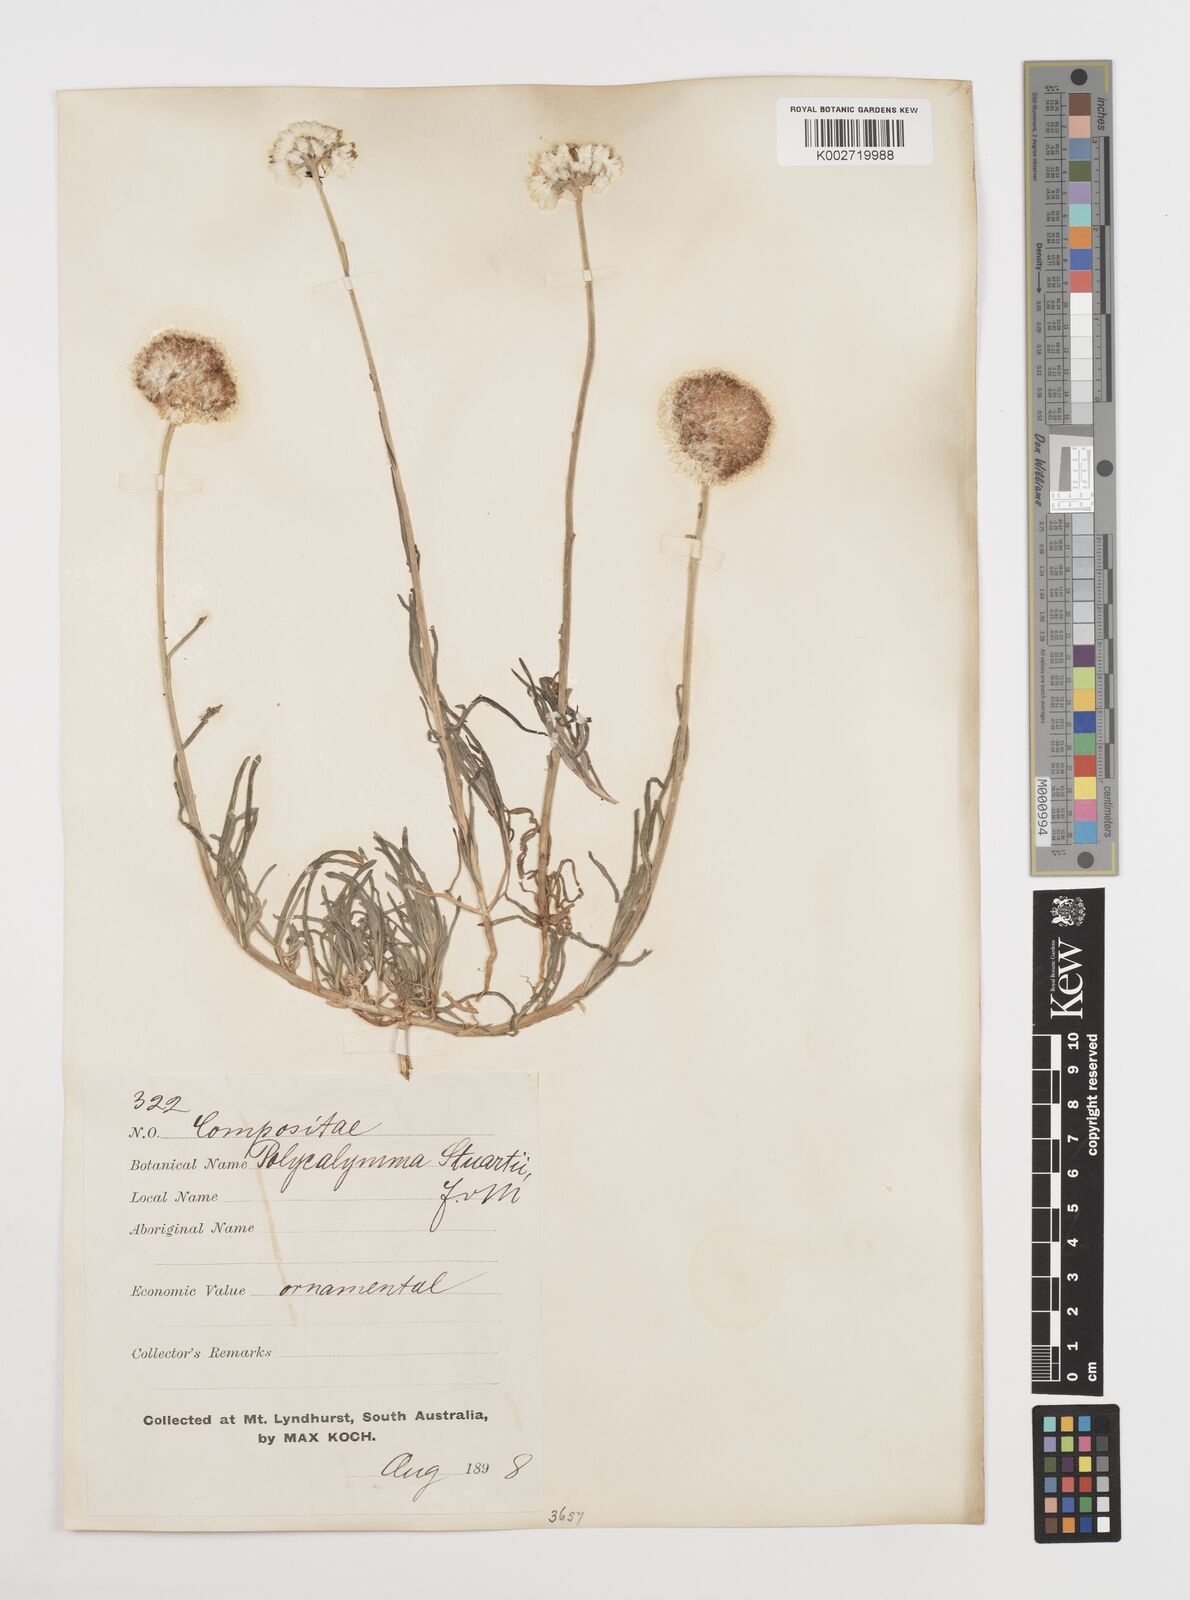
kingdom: Plantae
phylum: Tracheophyta
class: Magnoliopsida
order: Asterales
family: Asteraceae
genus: Polycalymma
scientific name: Polycalymma stuartii
